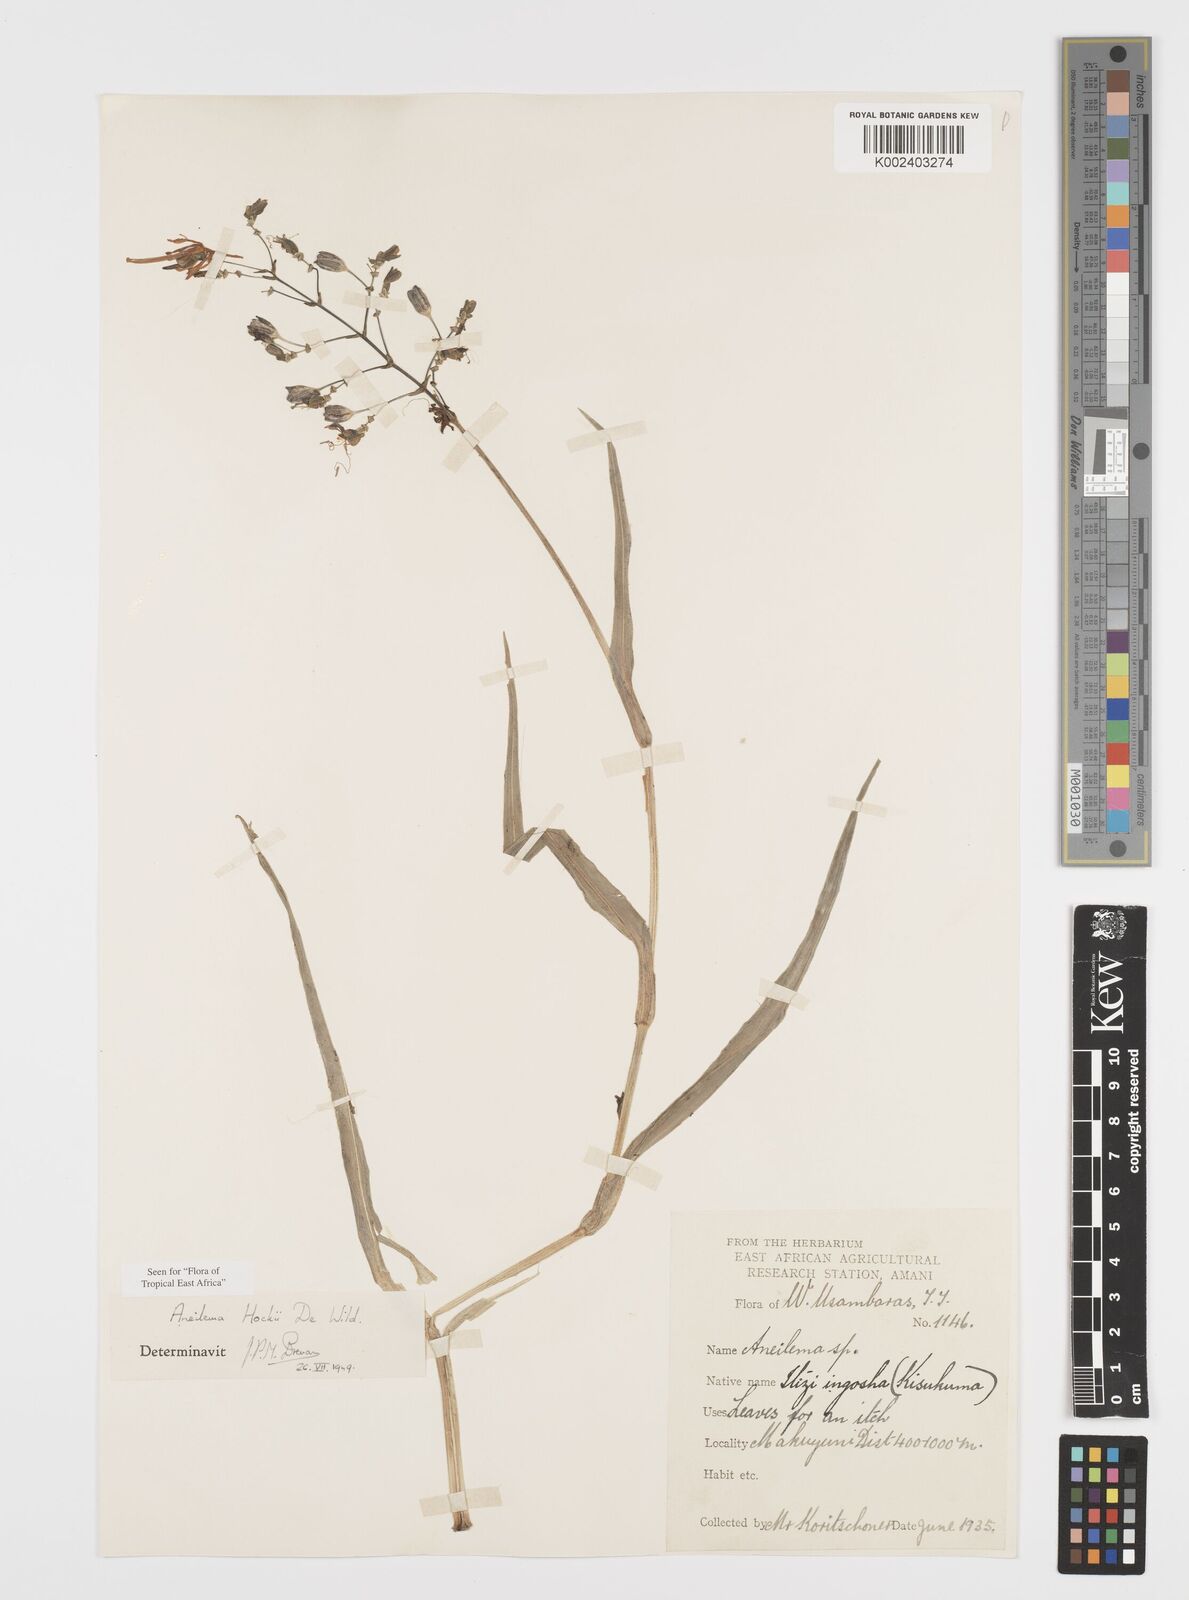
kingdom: Plantae
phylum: Tracheophyta
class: Liliopsida
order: Commelinales
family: Commelinaceae
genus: Aneilema
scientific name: Aneilema hockii
